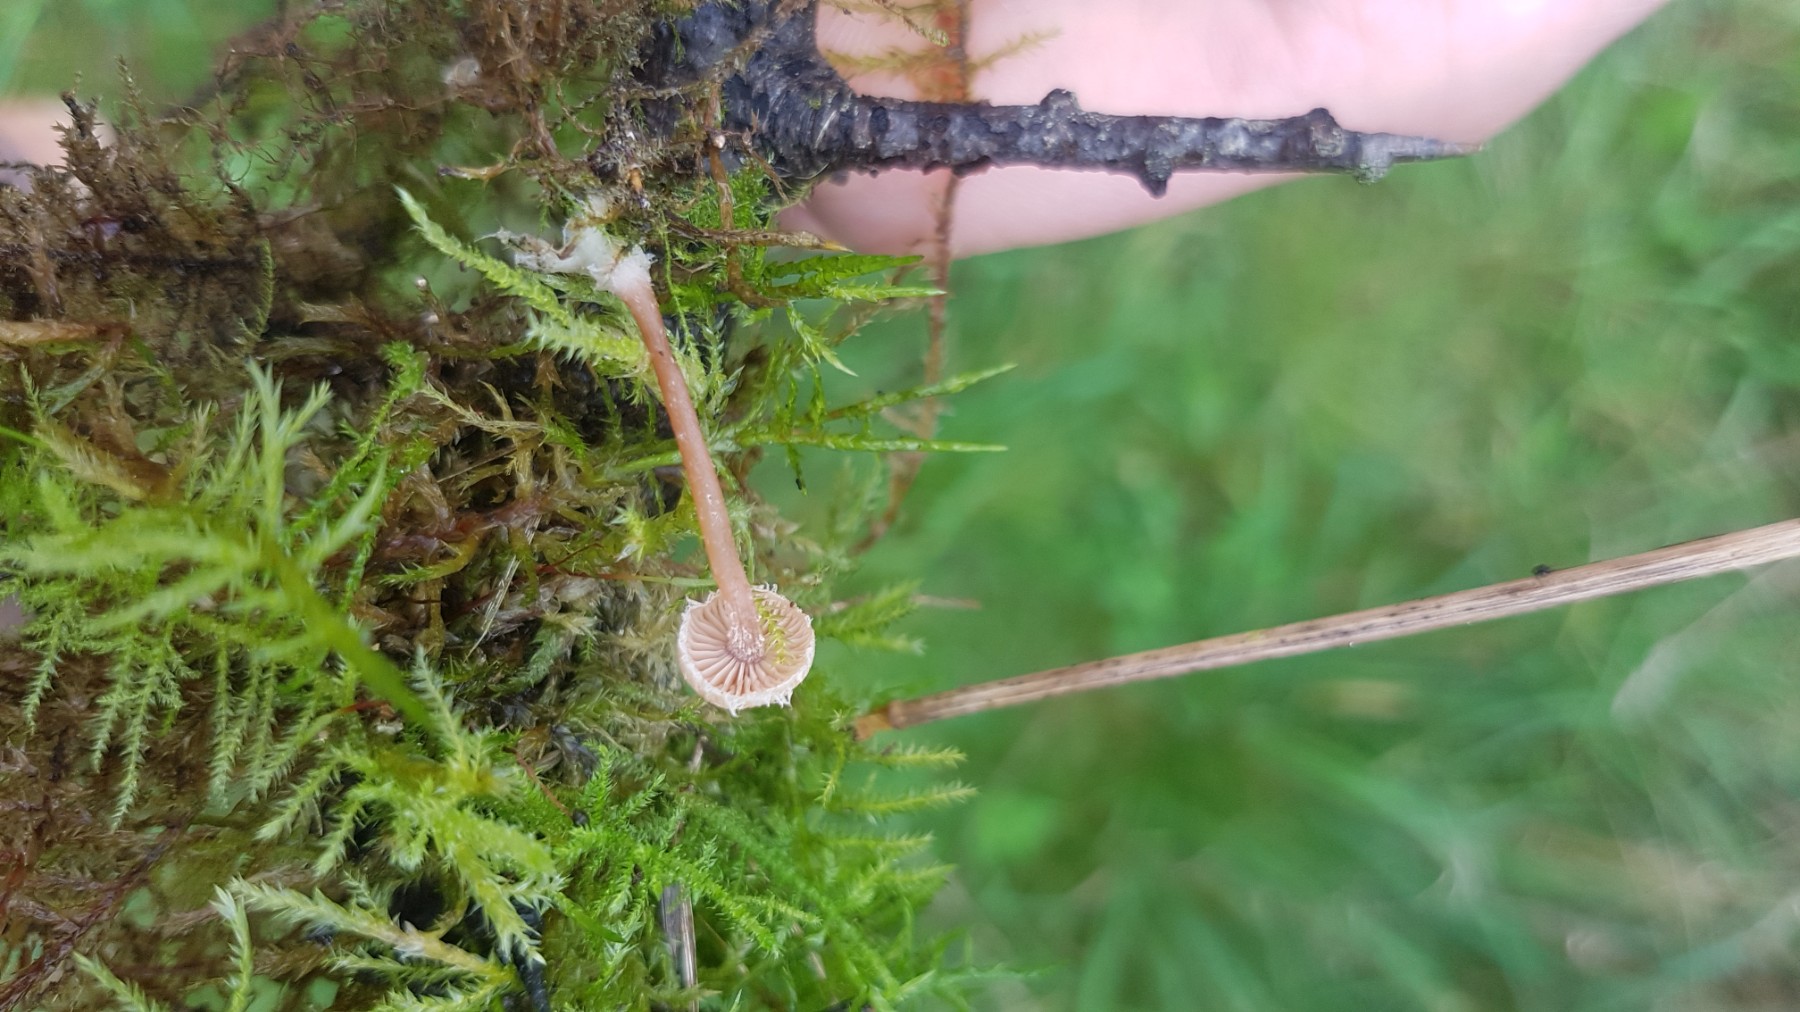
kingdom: Fungi
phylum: Basidiomycota
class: Agaricomycetes
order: Agaricales
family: Tubariaceae
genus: Flammulaster
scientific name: Flammulaster
